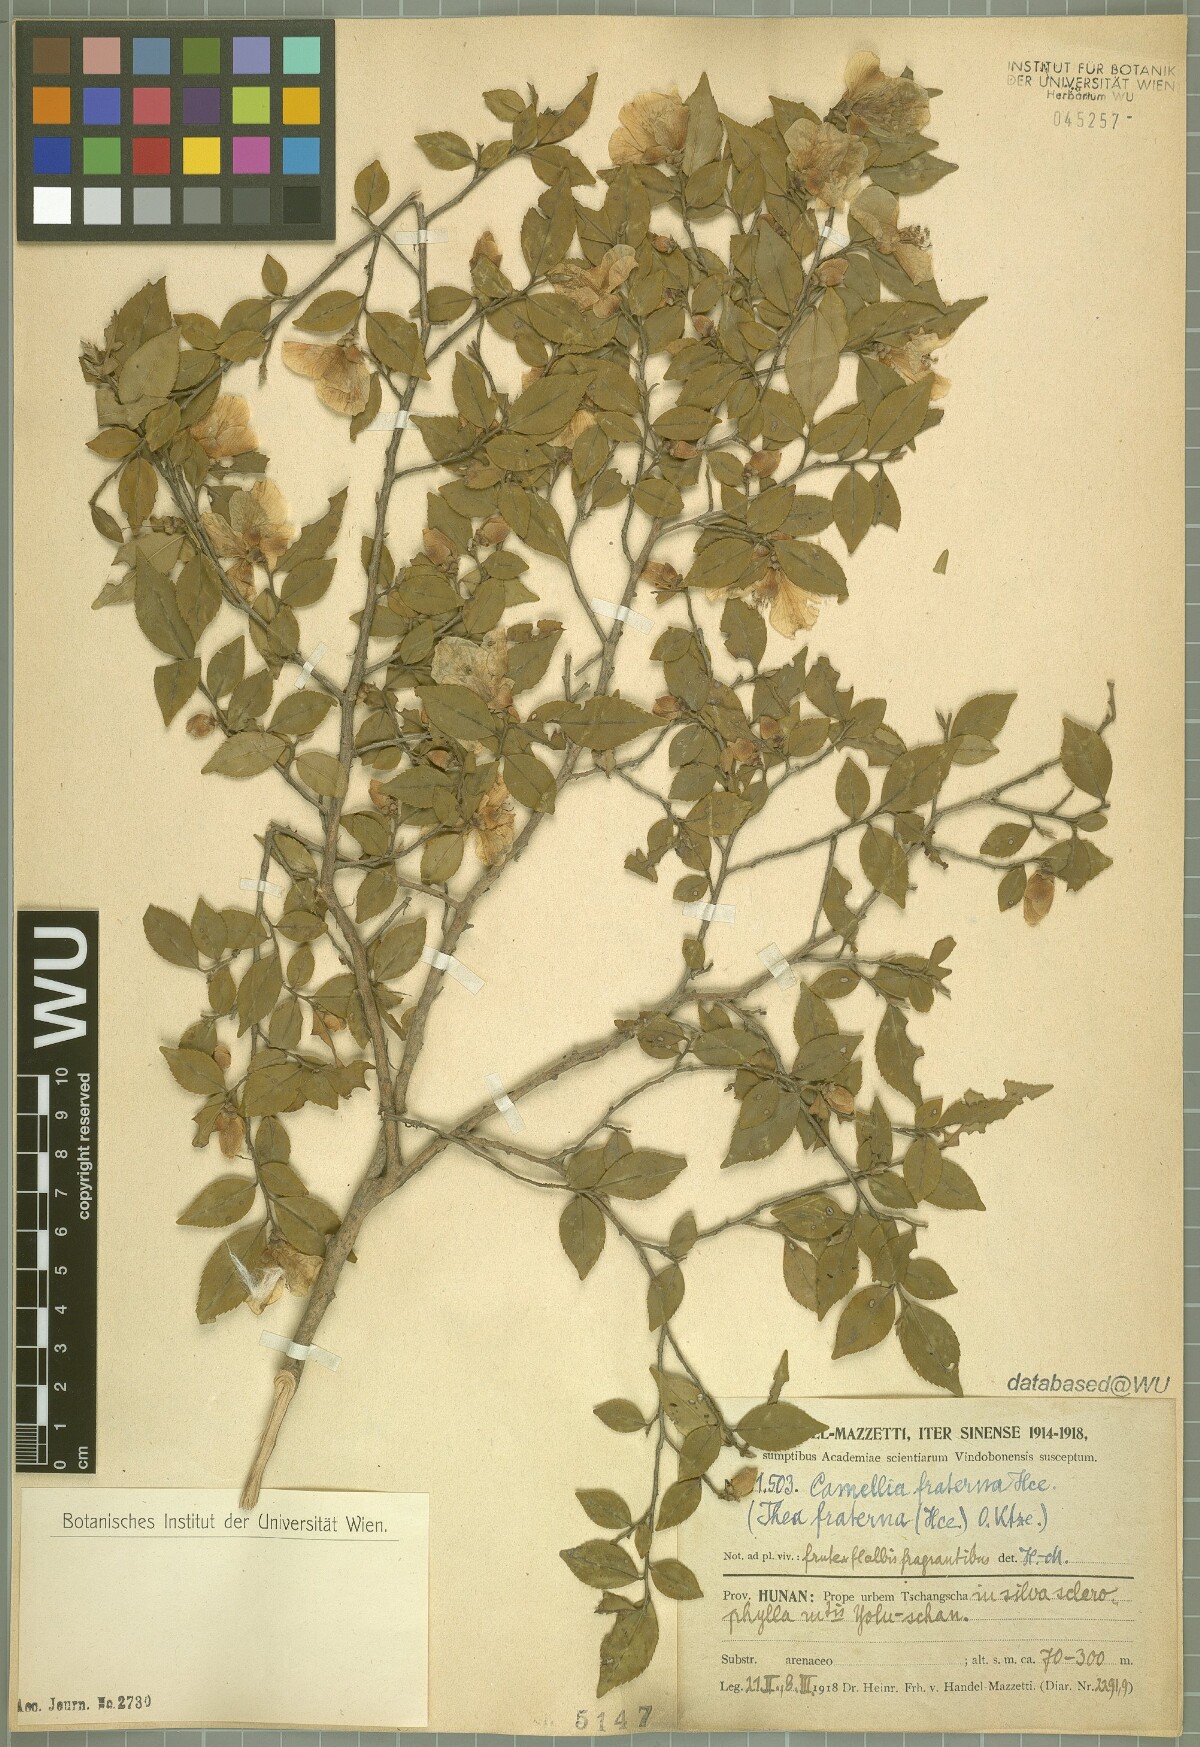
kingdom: Plantae
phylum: Tracheophyta
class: Magnoliopsida
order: Ericales
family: Theaceae
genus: Camellia
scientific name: Camellia fraterna
